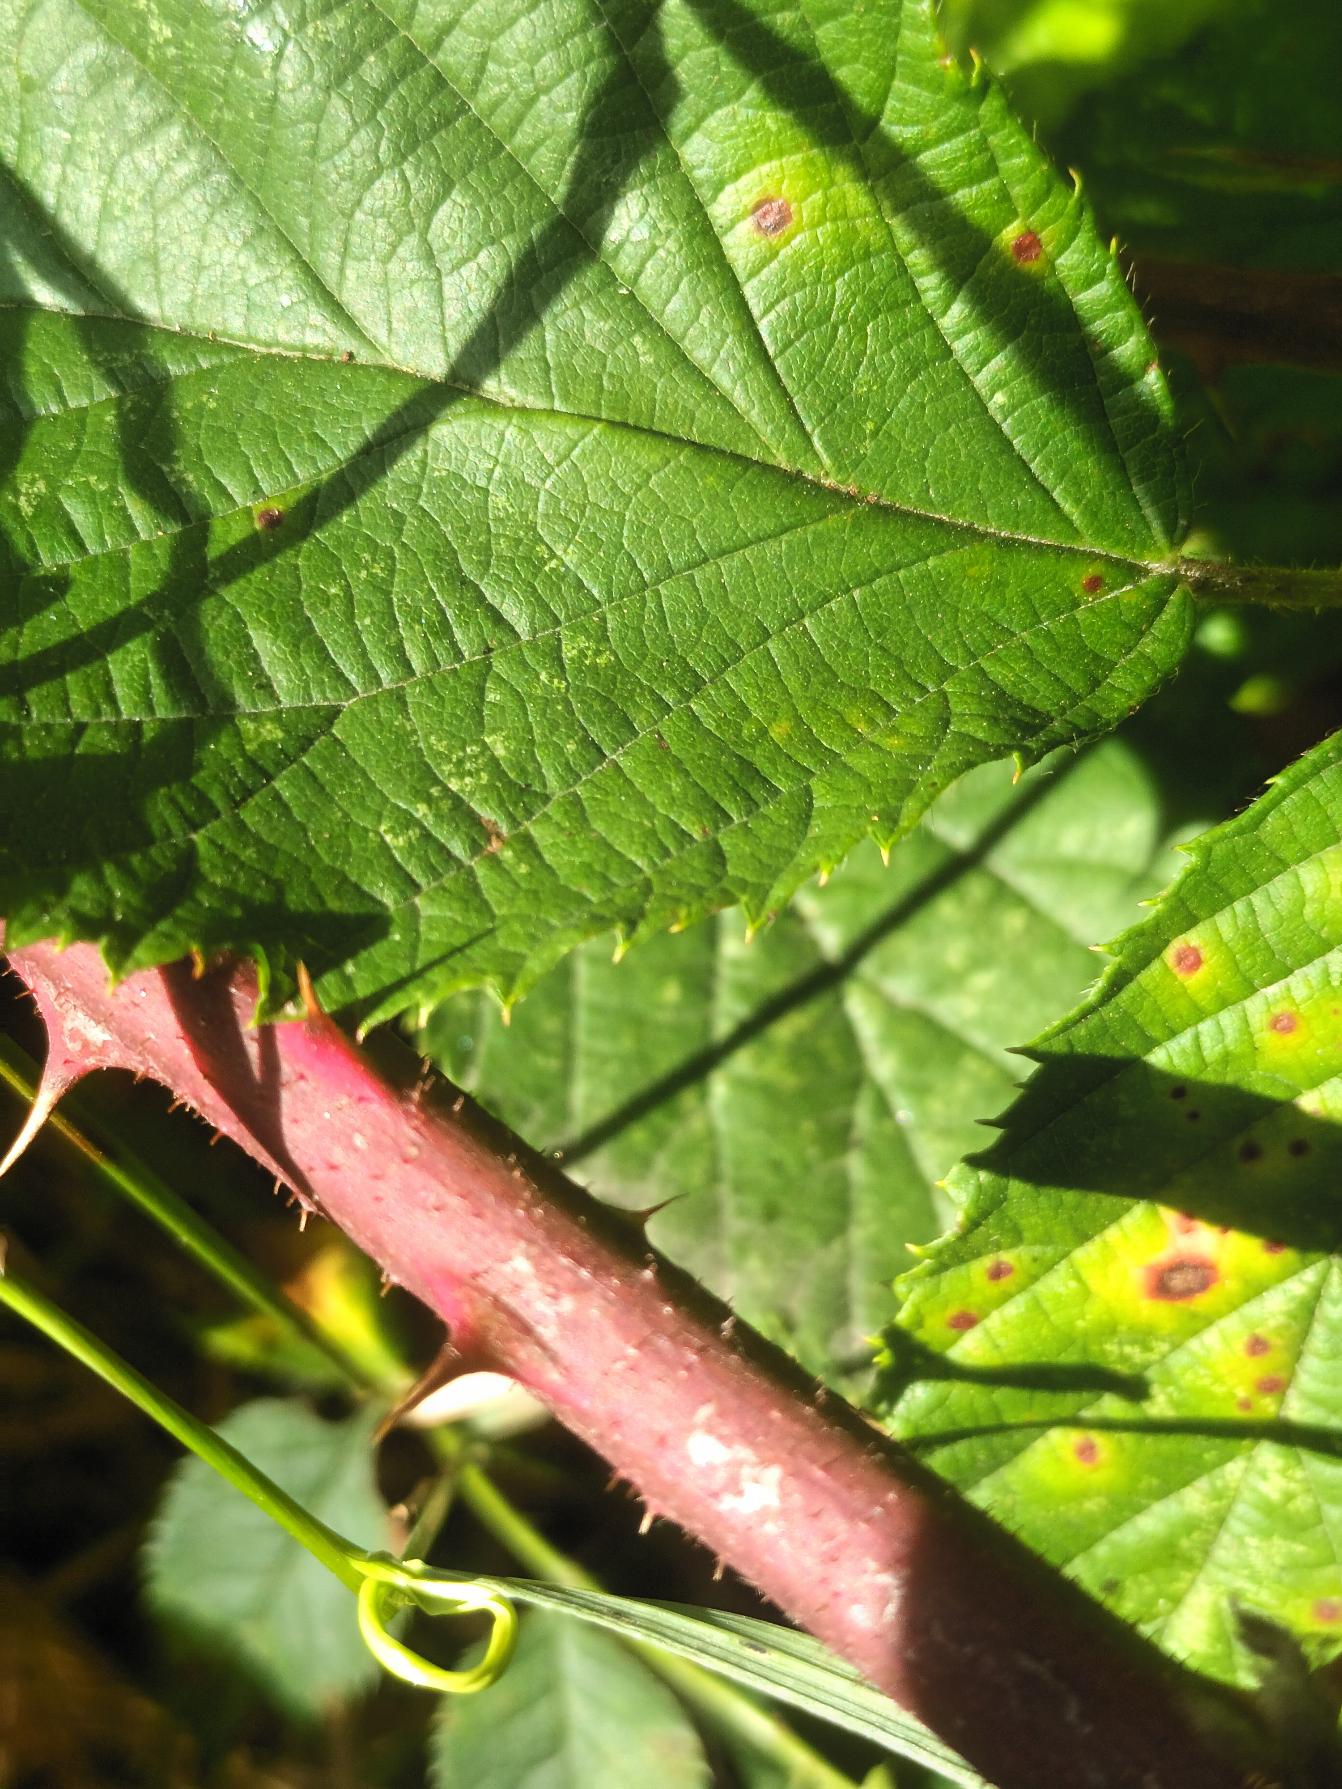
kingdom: Plantae
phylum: Tracheophyta
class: Magnoliopsida
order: Rosales
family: Rosaceae
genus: Rubus
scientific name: Rubus radula
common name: Rasperu brombær
